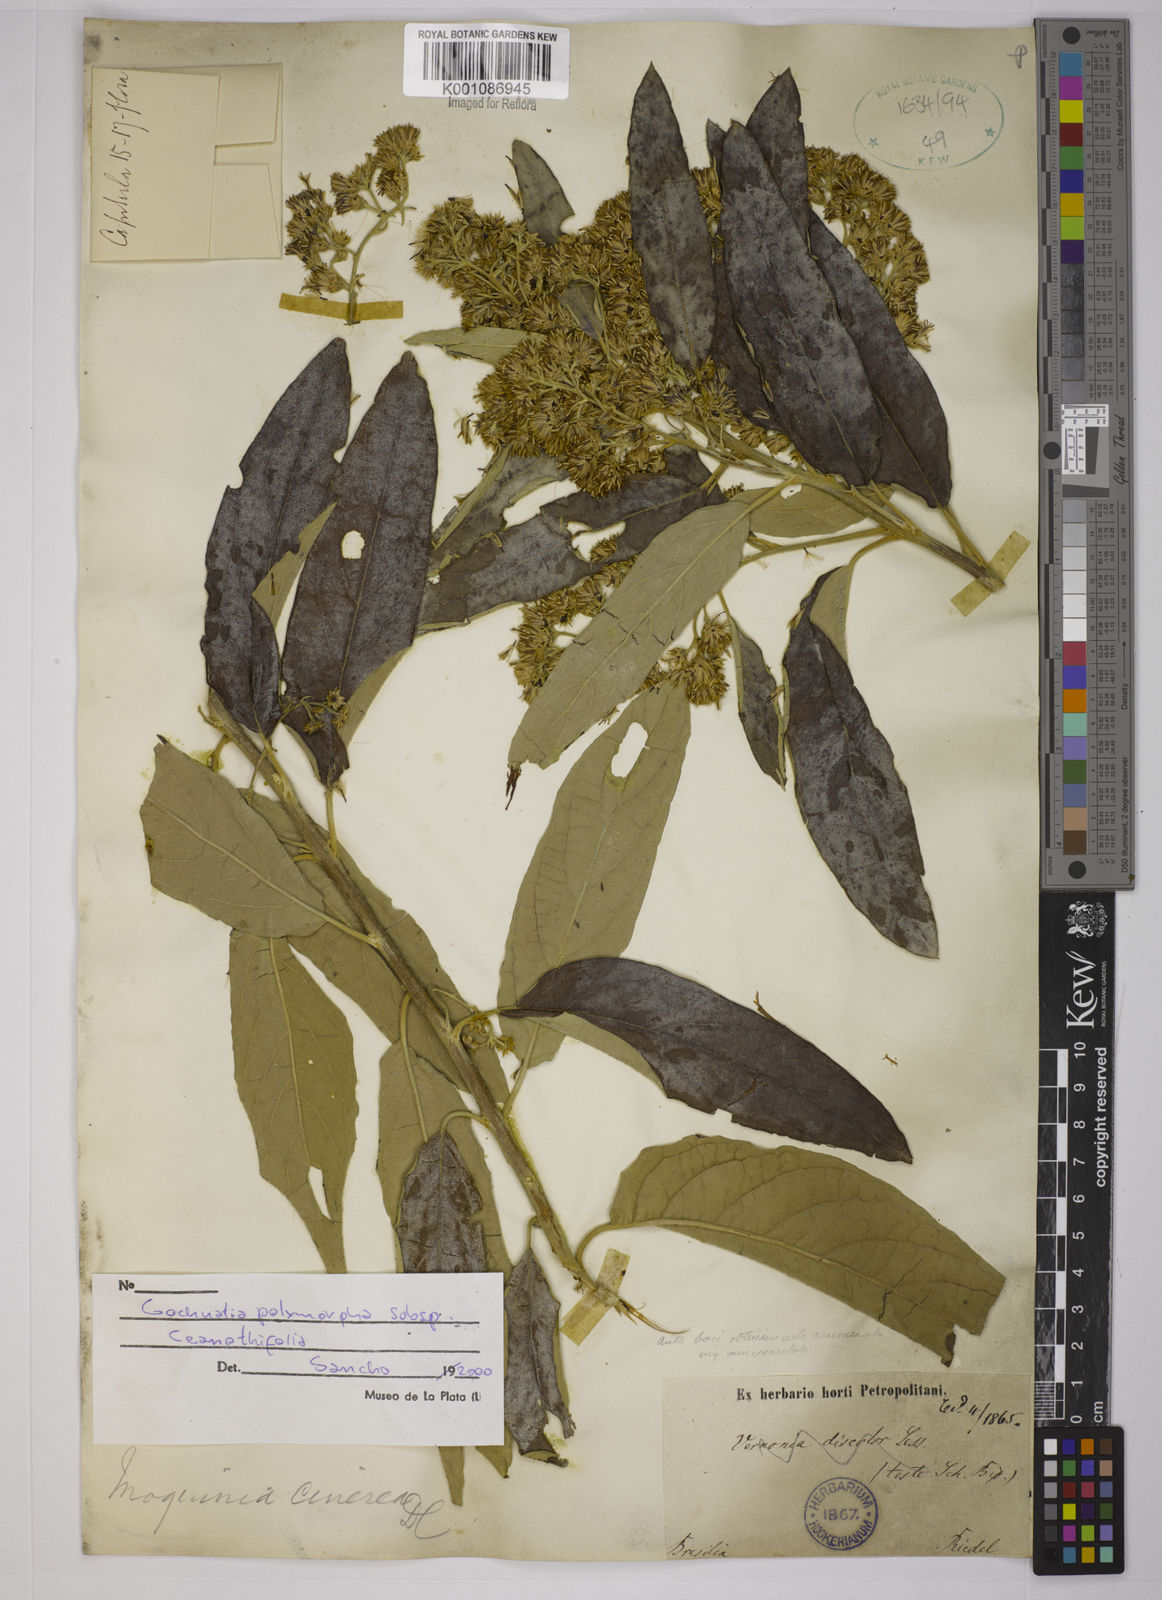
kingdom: Plantae
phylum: Tracheophyta
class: Magnoliopsida
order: Asterales
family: Asteraceae
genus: Moquiniastrum
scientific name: Moquiniastrum polymorphum
